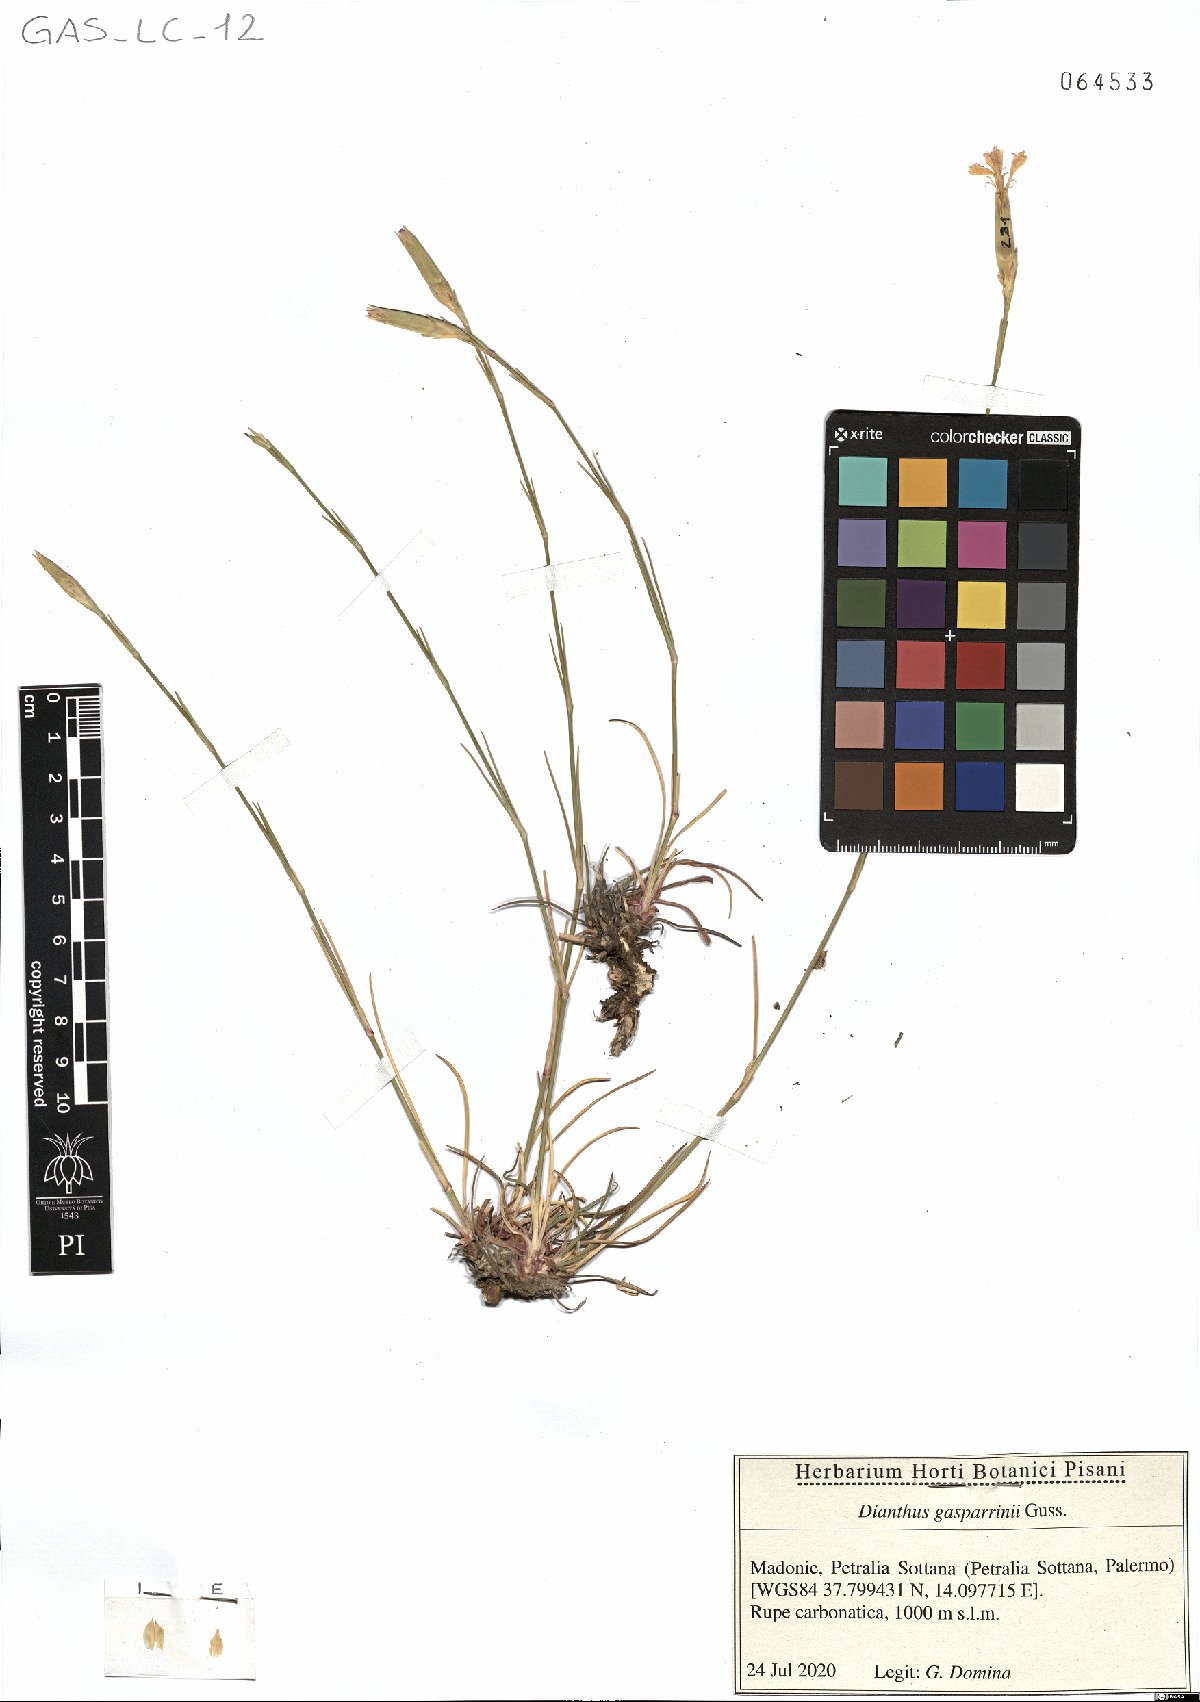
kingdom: Plantae
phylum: Tracheophyta
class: Magnoliopsida
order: Caryophyllales
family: Caryophyllaceae
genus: Dianthus
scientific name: Dianthus gasparrinii
